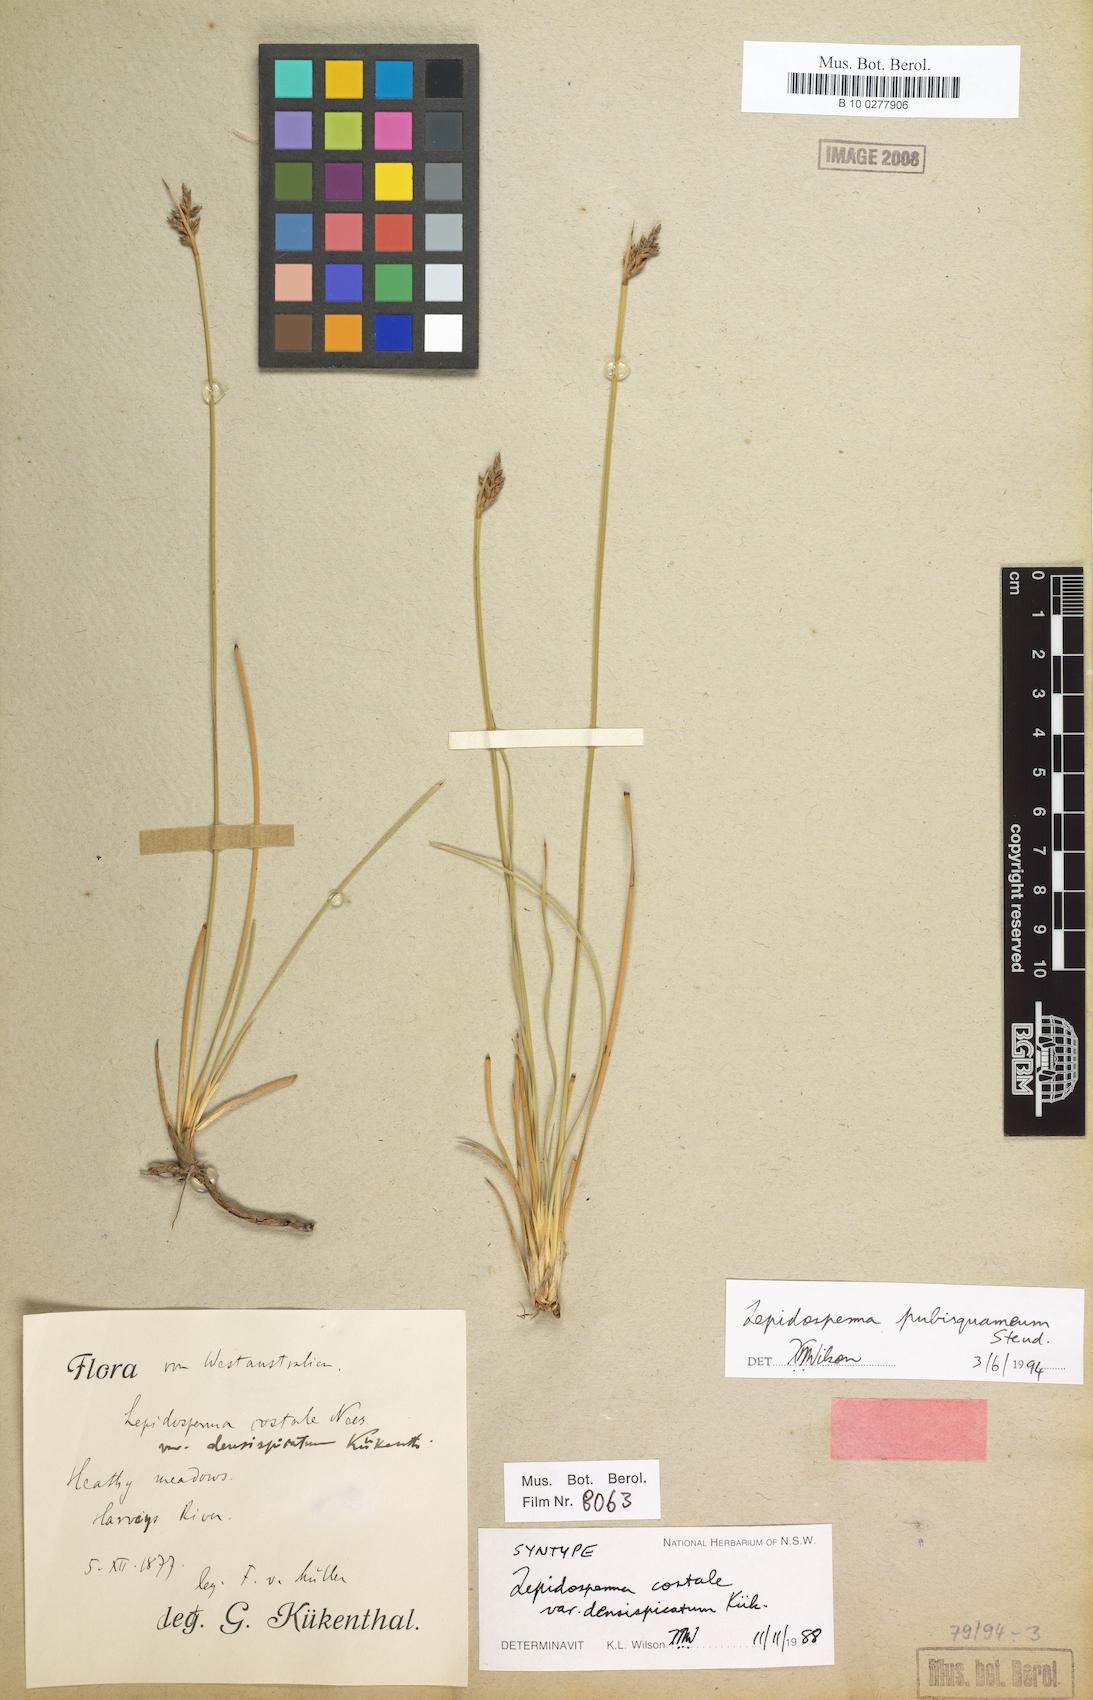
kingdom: Plantae
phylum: Tracheophyta
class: Liliopsida
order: Poales
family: Cyperaceae
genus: Lepidosperma
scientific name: Lepidosperma pubisquameum
